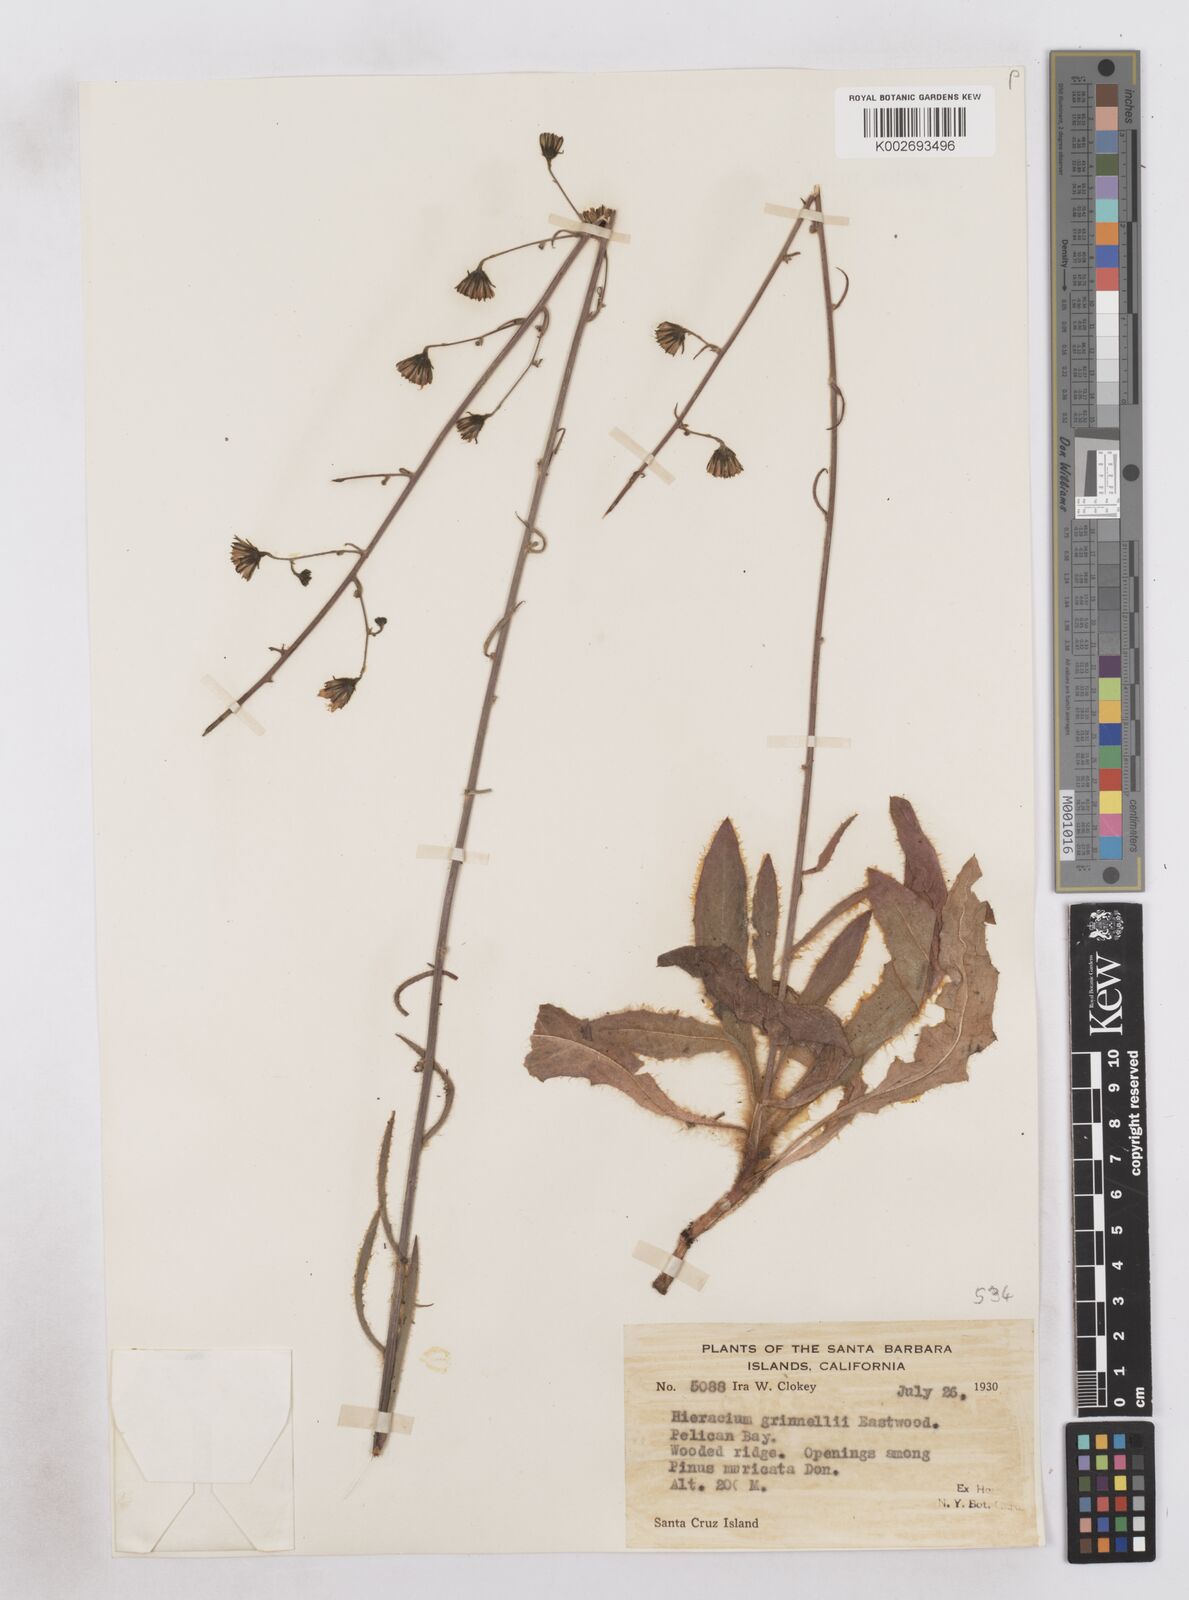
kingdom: Plantae
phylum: Tracheophyta
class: Magnoliopsida
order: Asterales
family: Asteraceae
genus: Hieracium
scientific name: Hieracium grinnellii
